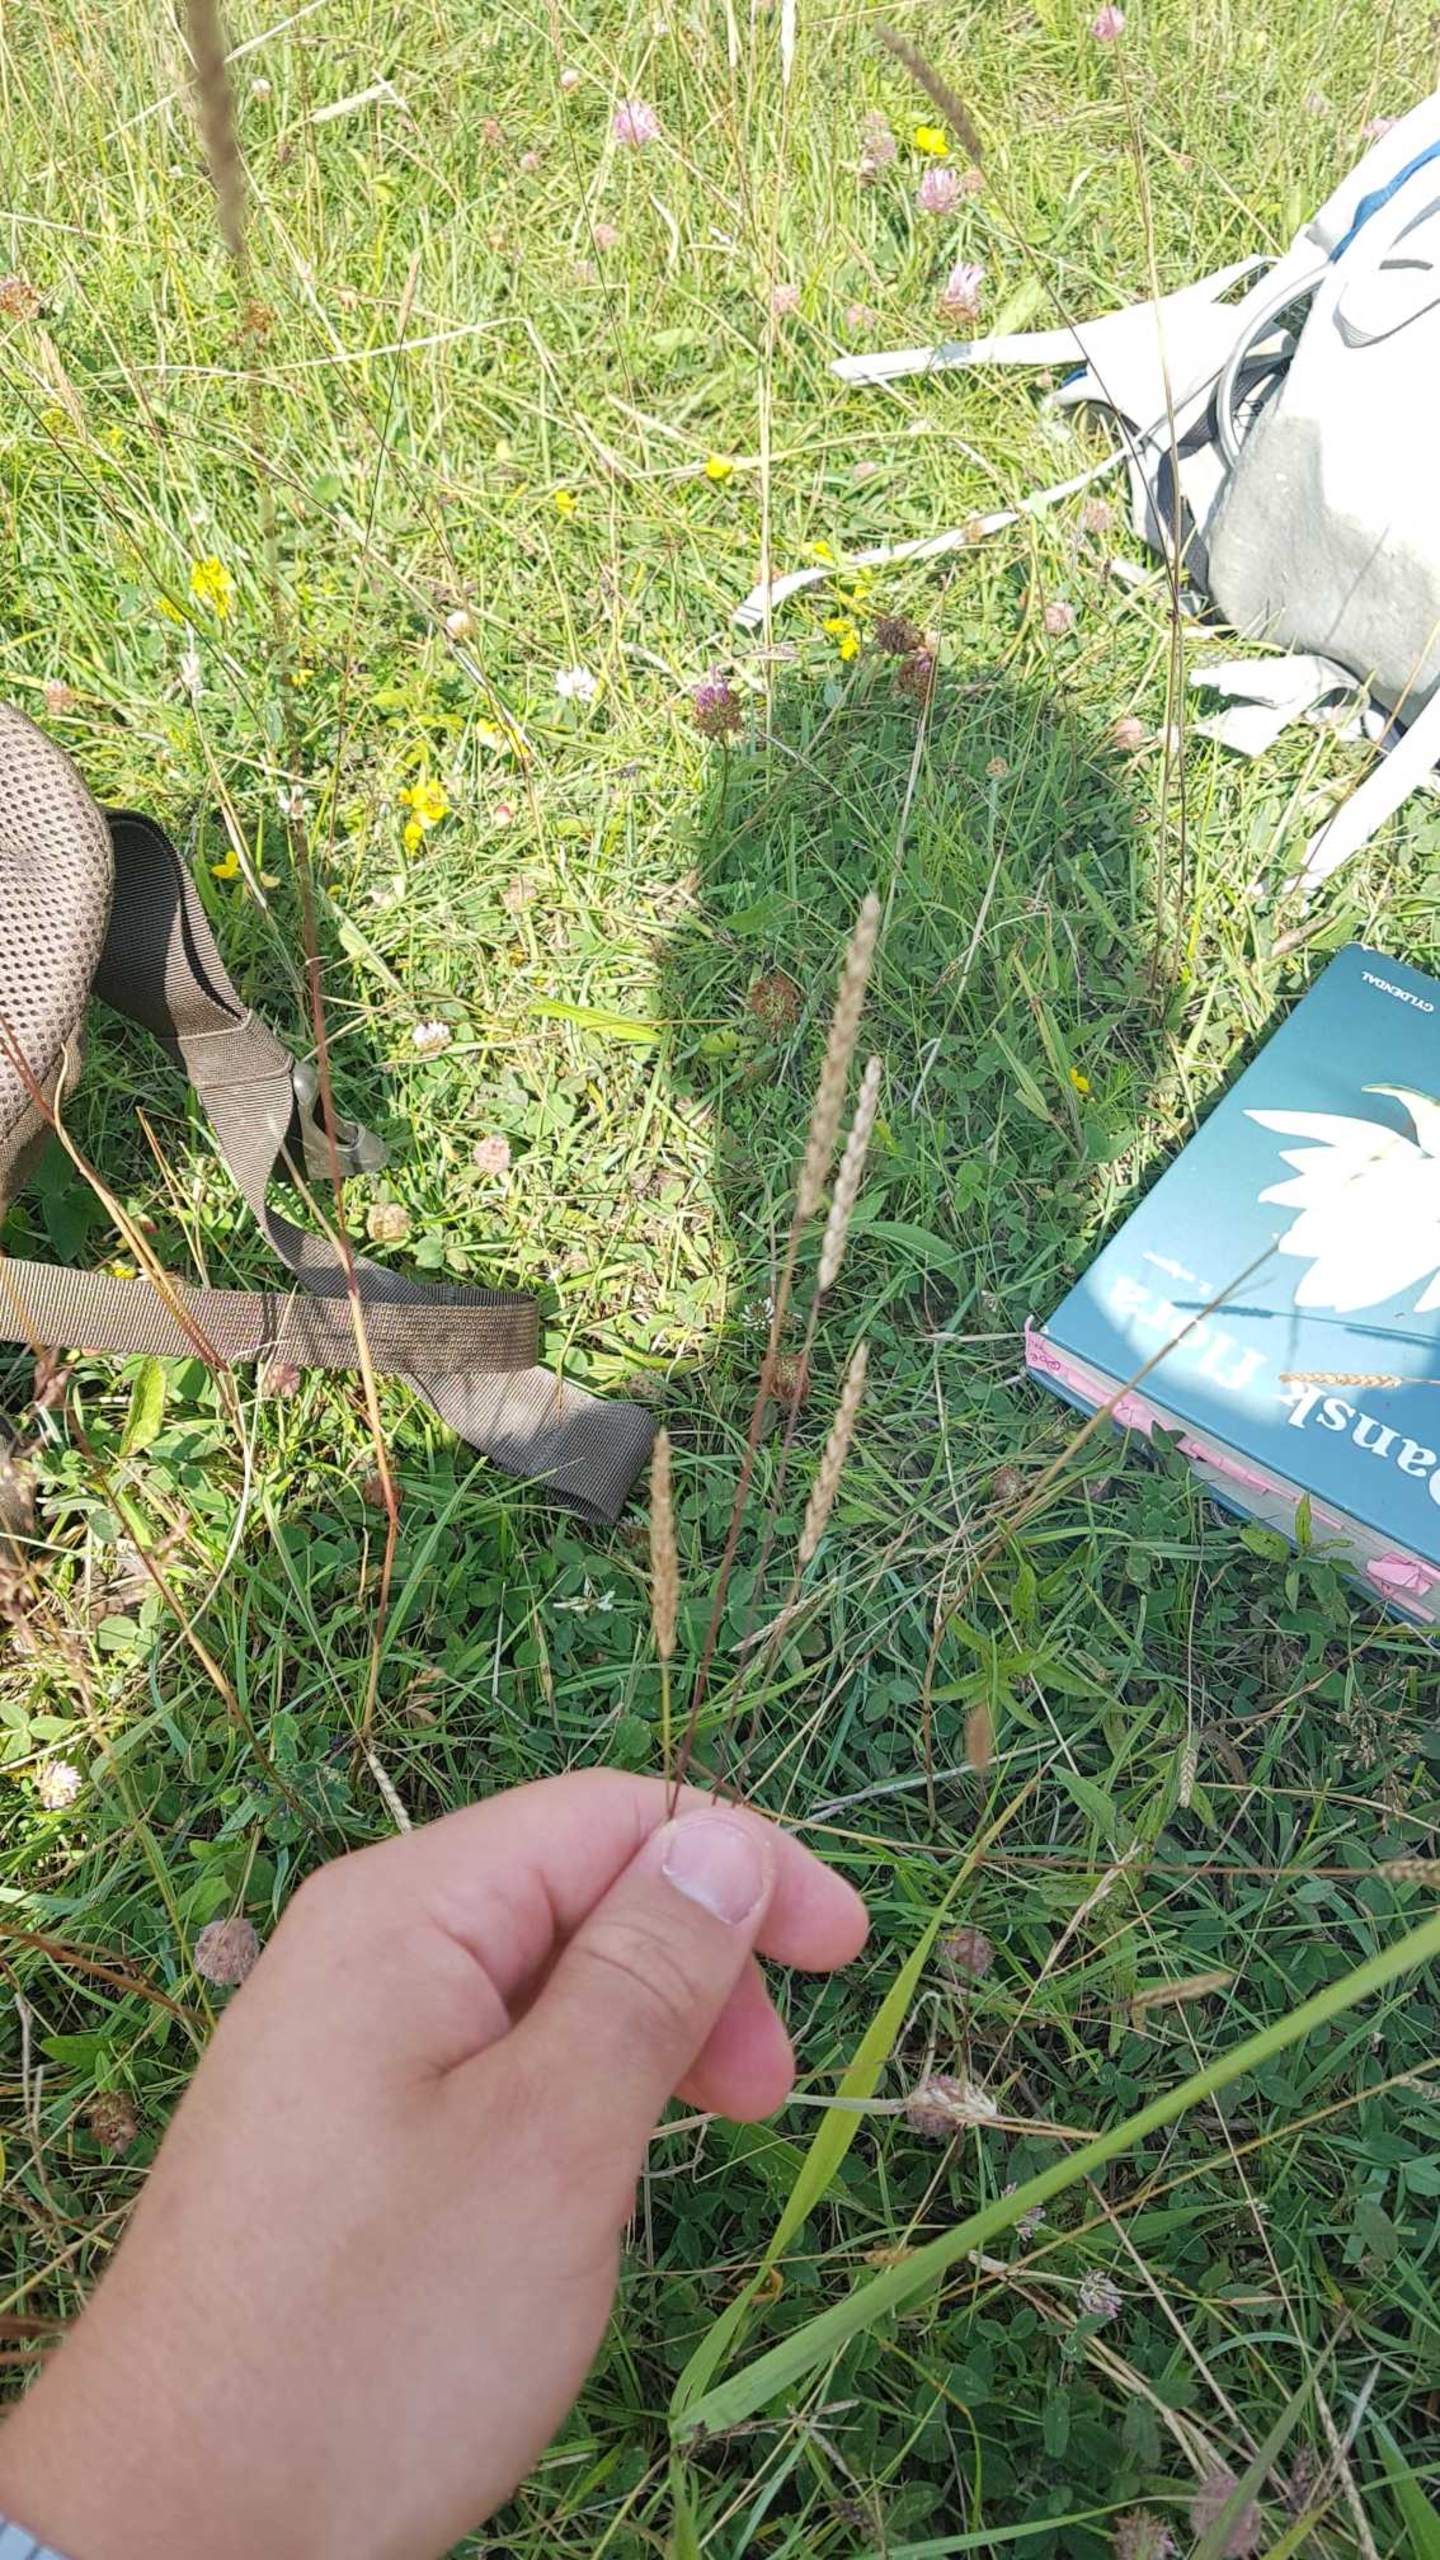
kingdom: Plantae
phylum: Tracheophyta
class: Liliopsida
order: Poales
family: Poaceae
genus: Cynosurus
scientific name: Cynosurus cristatus
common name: Kamgræs
